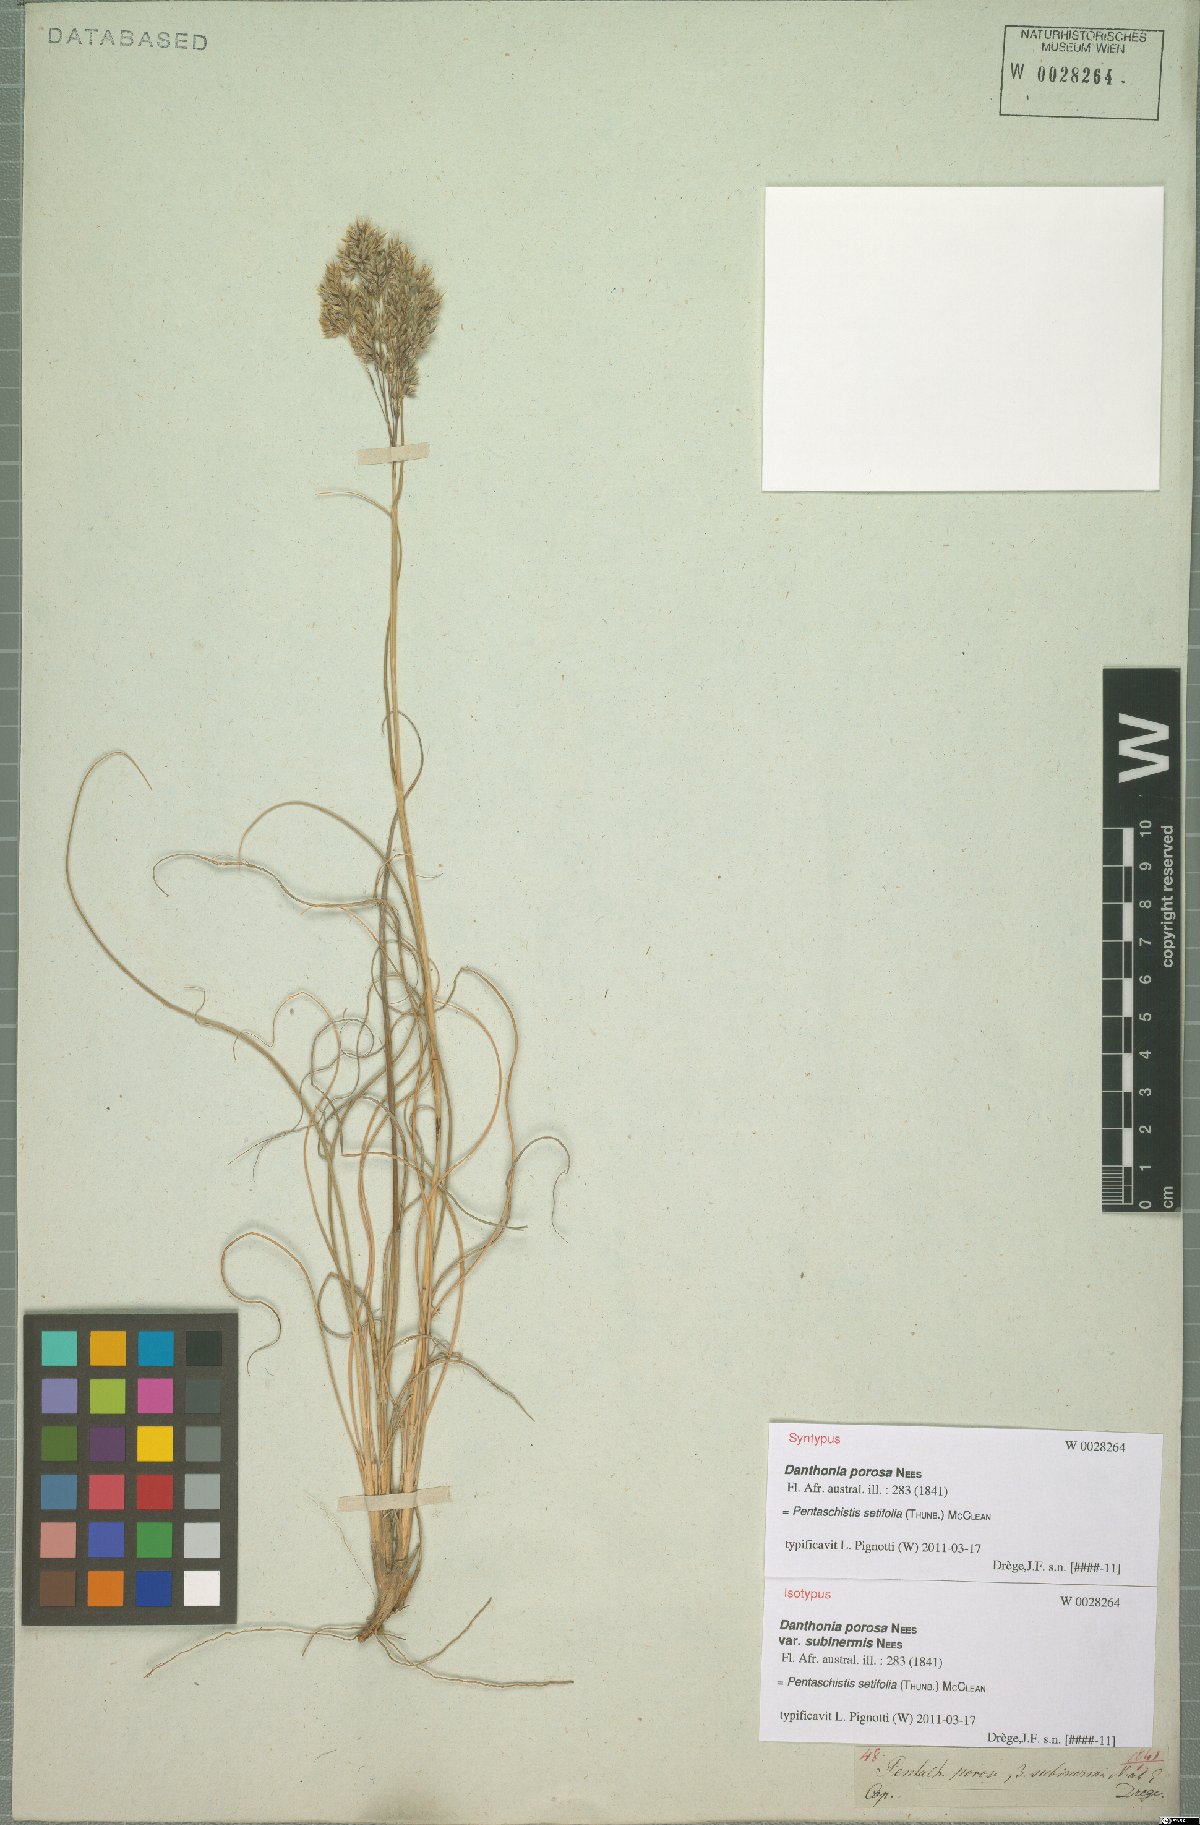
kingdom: Plantae
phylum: Tracheophyta
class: Liliopsida
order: Poales
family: Poaceae
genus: Pentameris
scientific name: Pentameris setifolia
